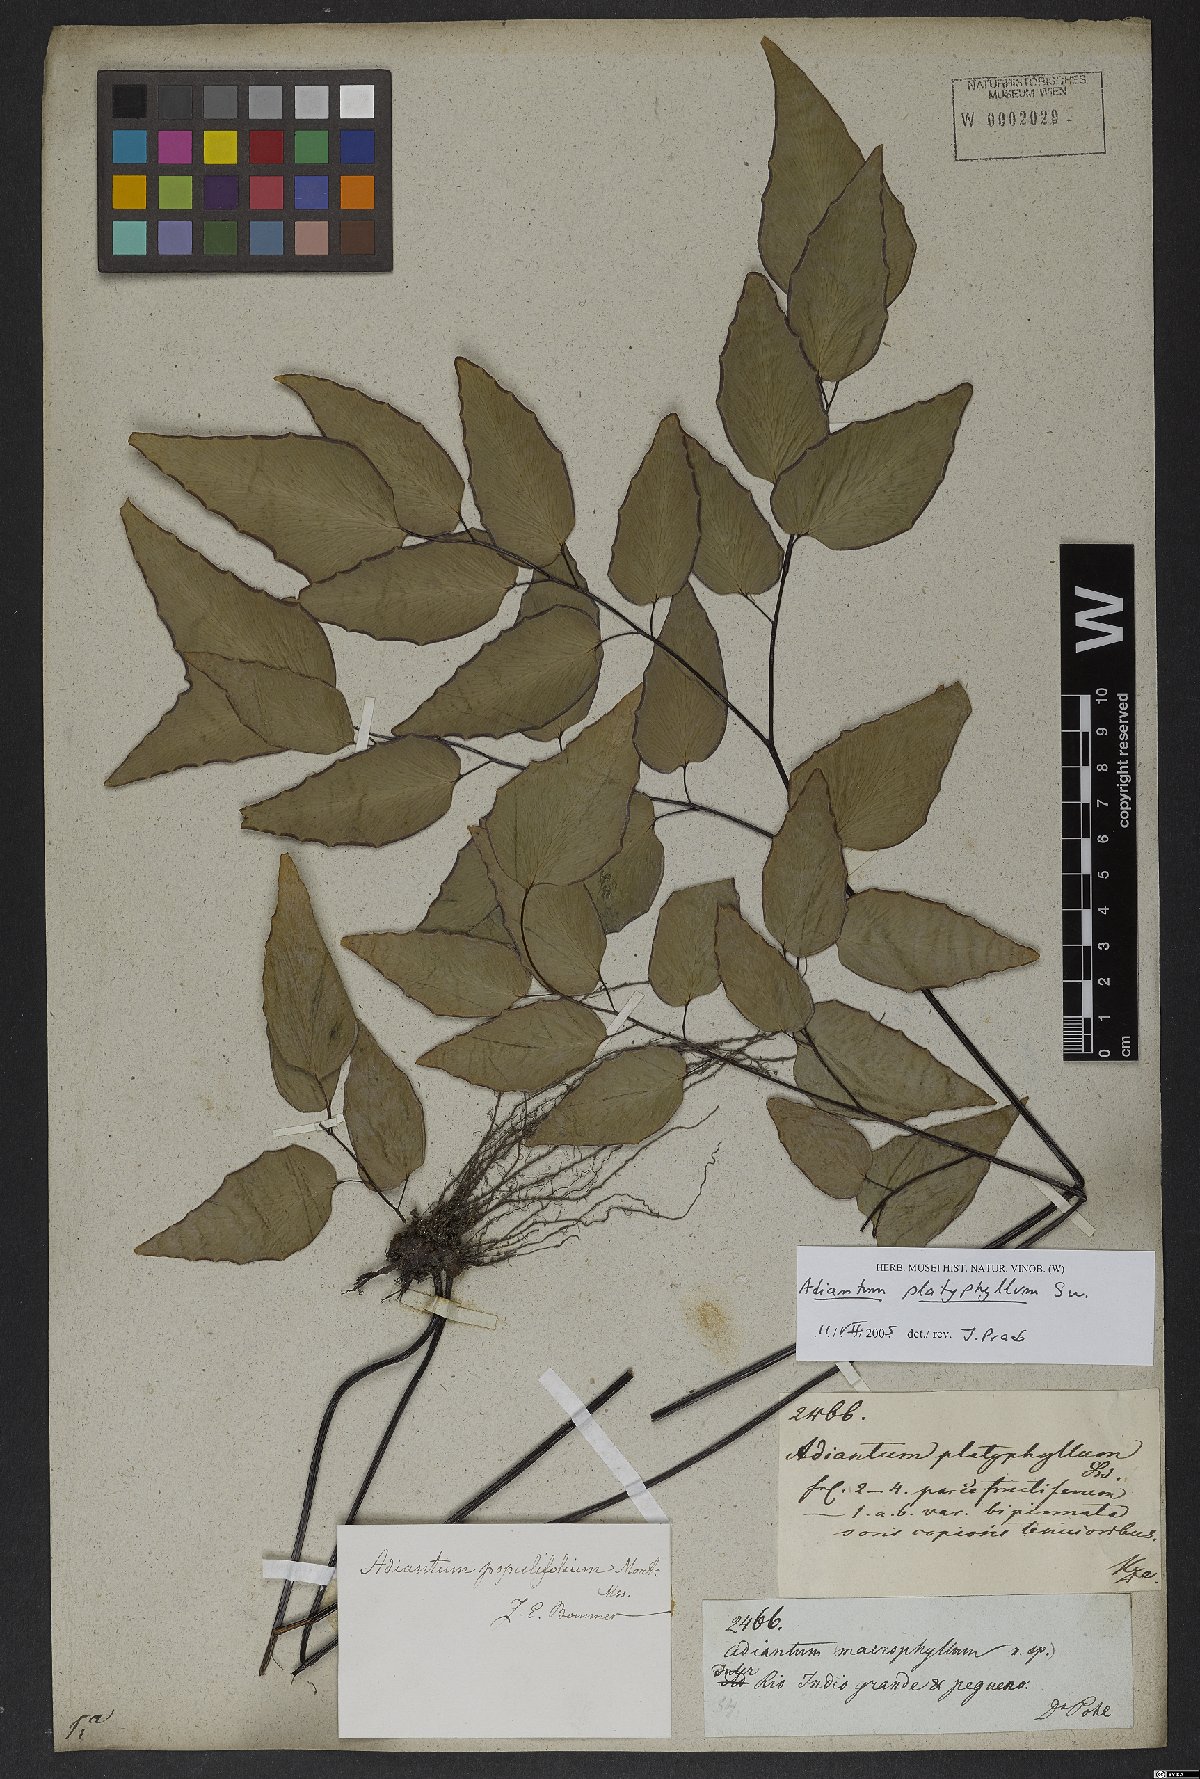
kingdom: Plantae
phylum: Tracheophyta
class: Polypodiopsida
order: Polypodiales
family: Pteridaceae
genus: Adiantum
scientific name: Adiantum platyphyllum
